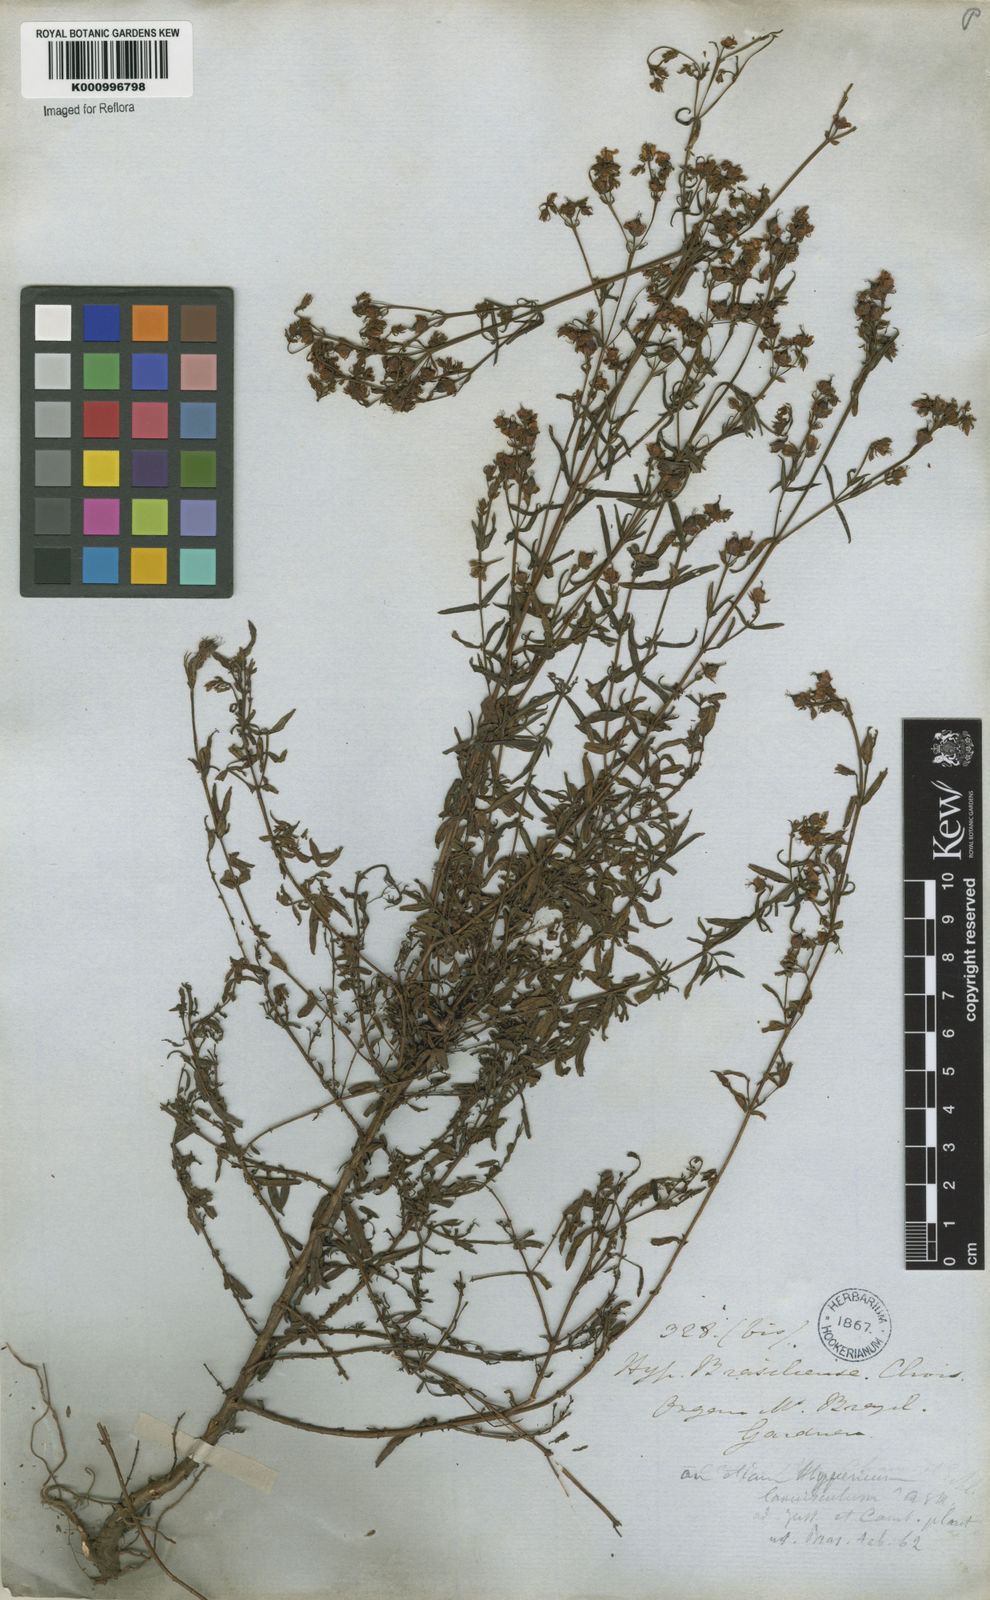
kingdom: Plantae
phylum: Tracheophyta
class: Magnoliopsida
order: Malpighiales
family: Hypericaceae
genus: Hypericum
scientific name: Hypericum brasiliense
